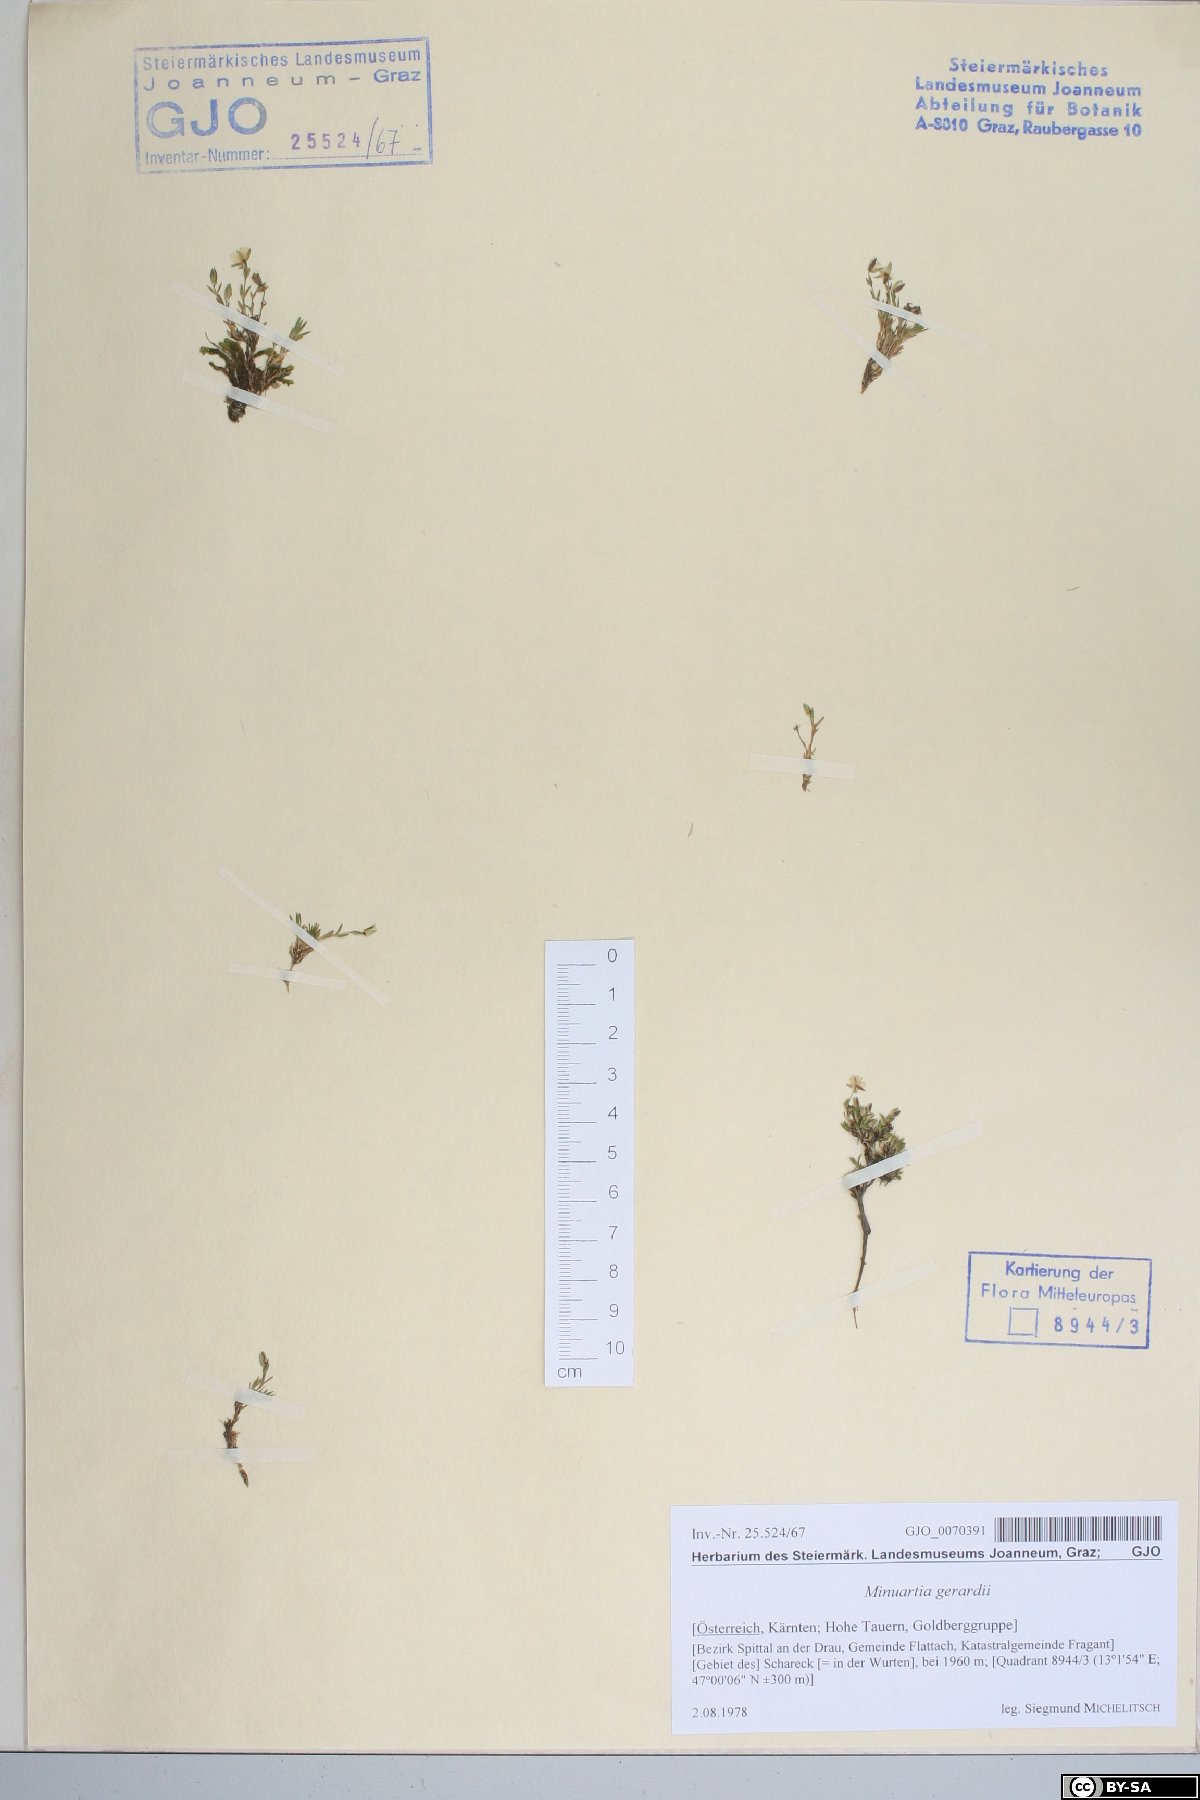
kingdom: Plantae
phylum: Tracheophyta
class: Magnoliopsida
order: Caryophyllales
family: Caryophyllaceae
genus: Sabulina
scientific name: Sabulina verna
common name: Spring sandwort
